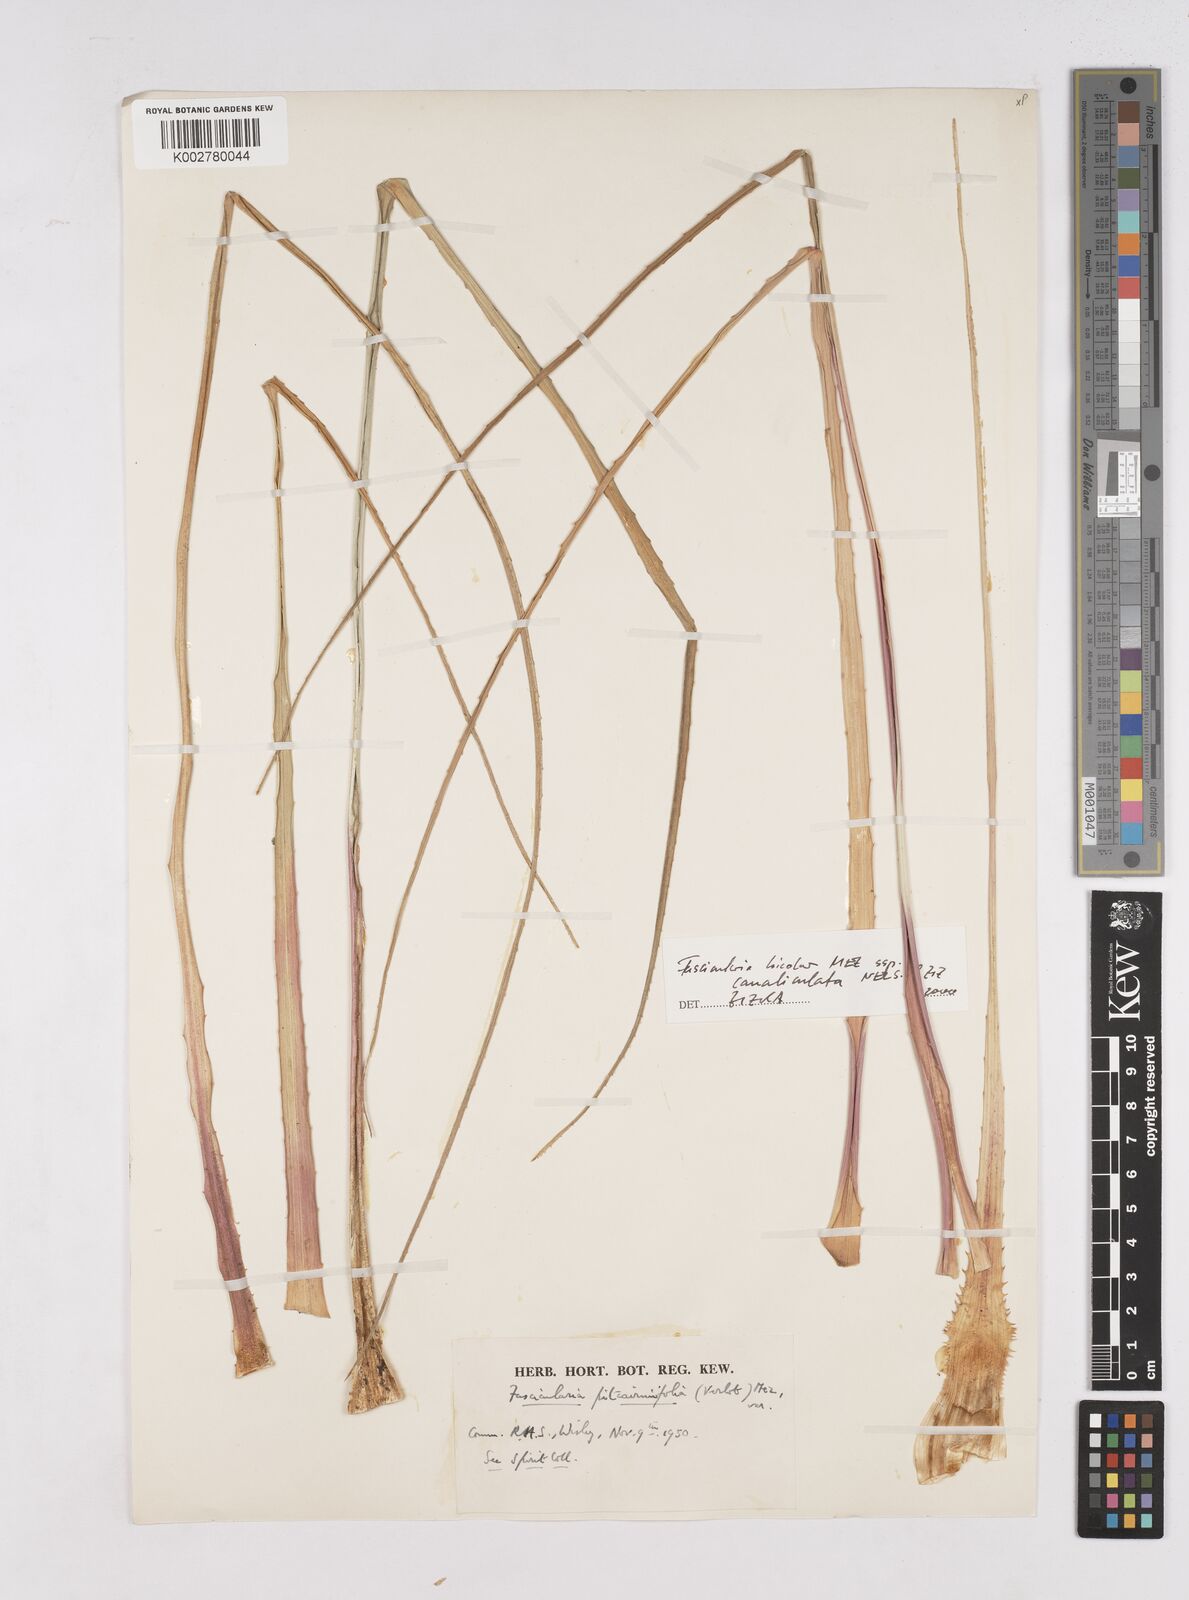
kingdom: Plantae
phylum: Tracheophyta
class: Liliopsida
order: Poales
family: Bromeliaceae
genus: Hechtia
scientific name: Hechtia pitcairniifolia
